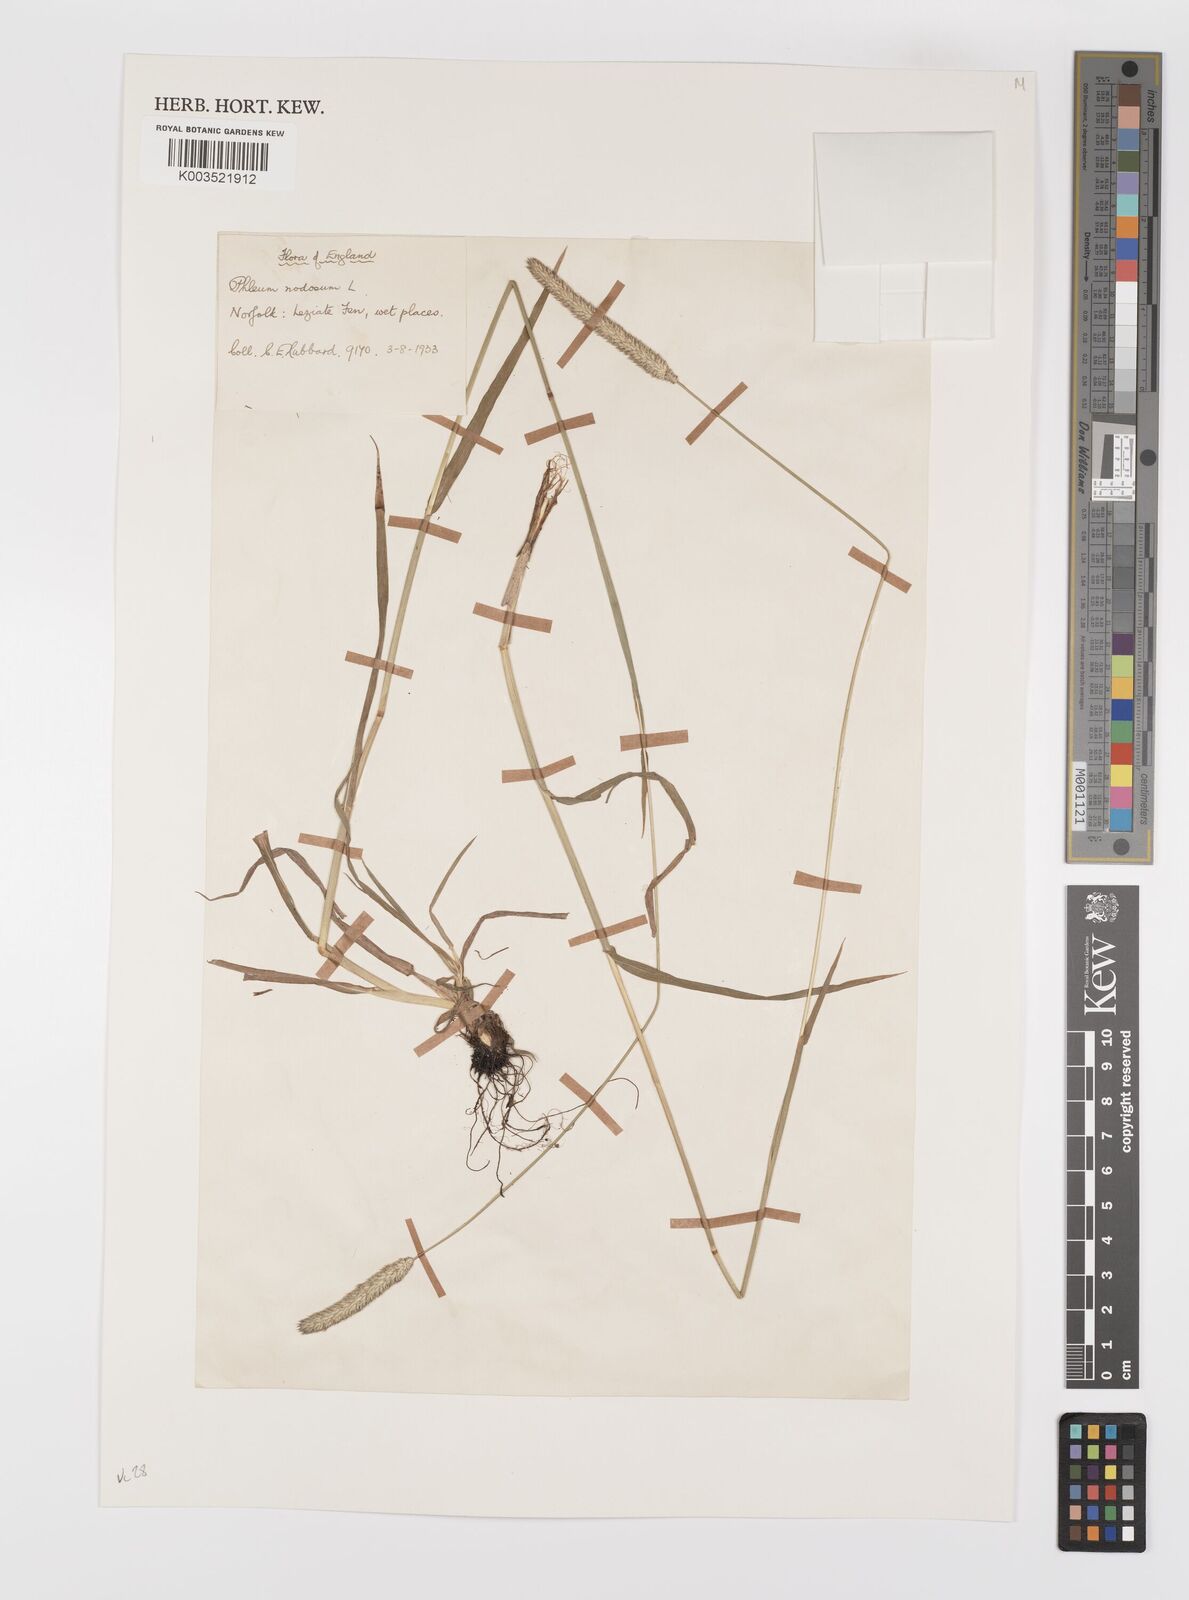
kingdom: Plantae
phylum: Tracheophyta
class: Liliopsida
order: Poales
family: Poaceae
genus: Phleum
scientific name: Phleum bertolonii
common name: Smaller cat's-tail
